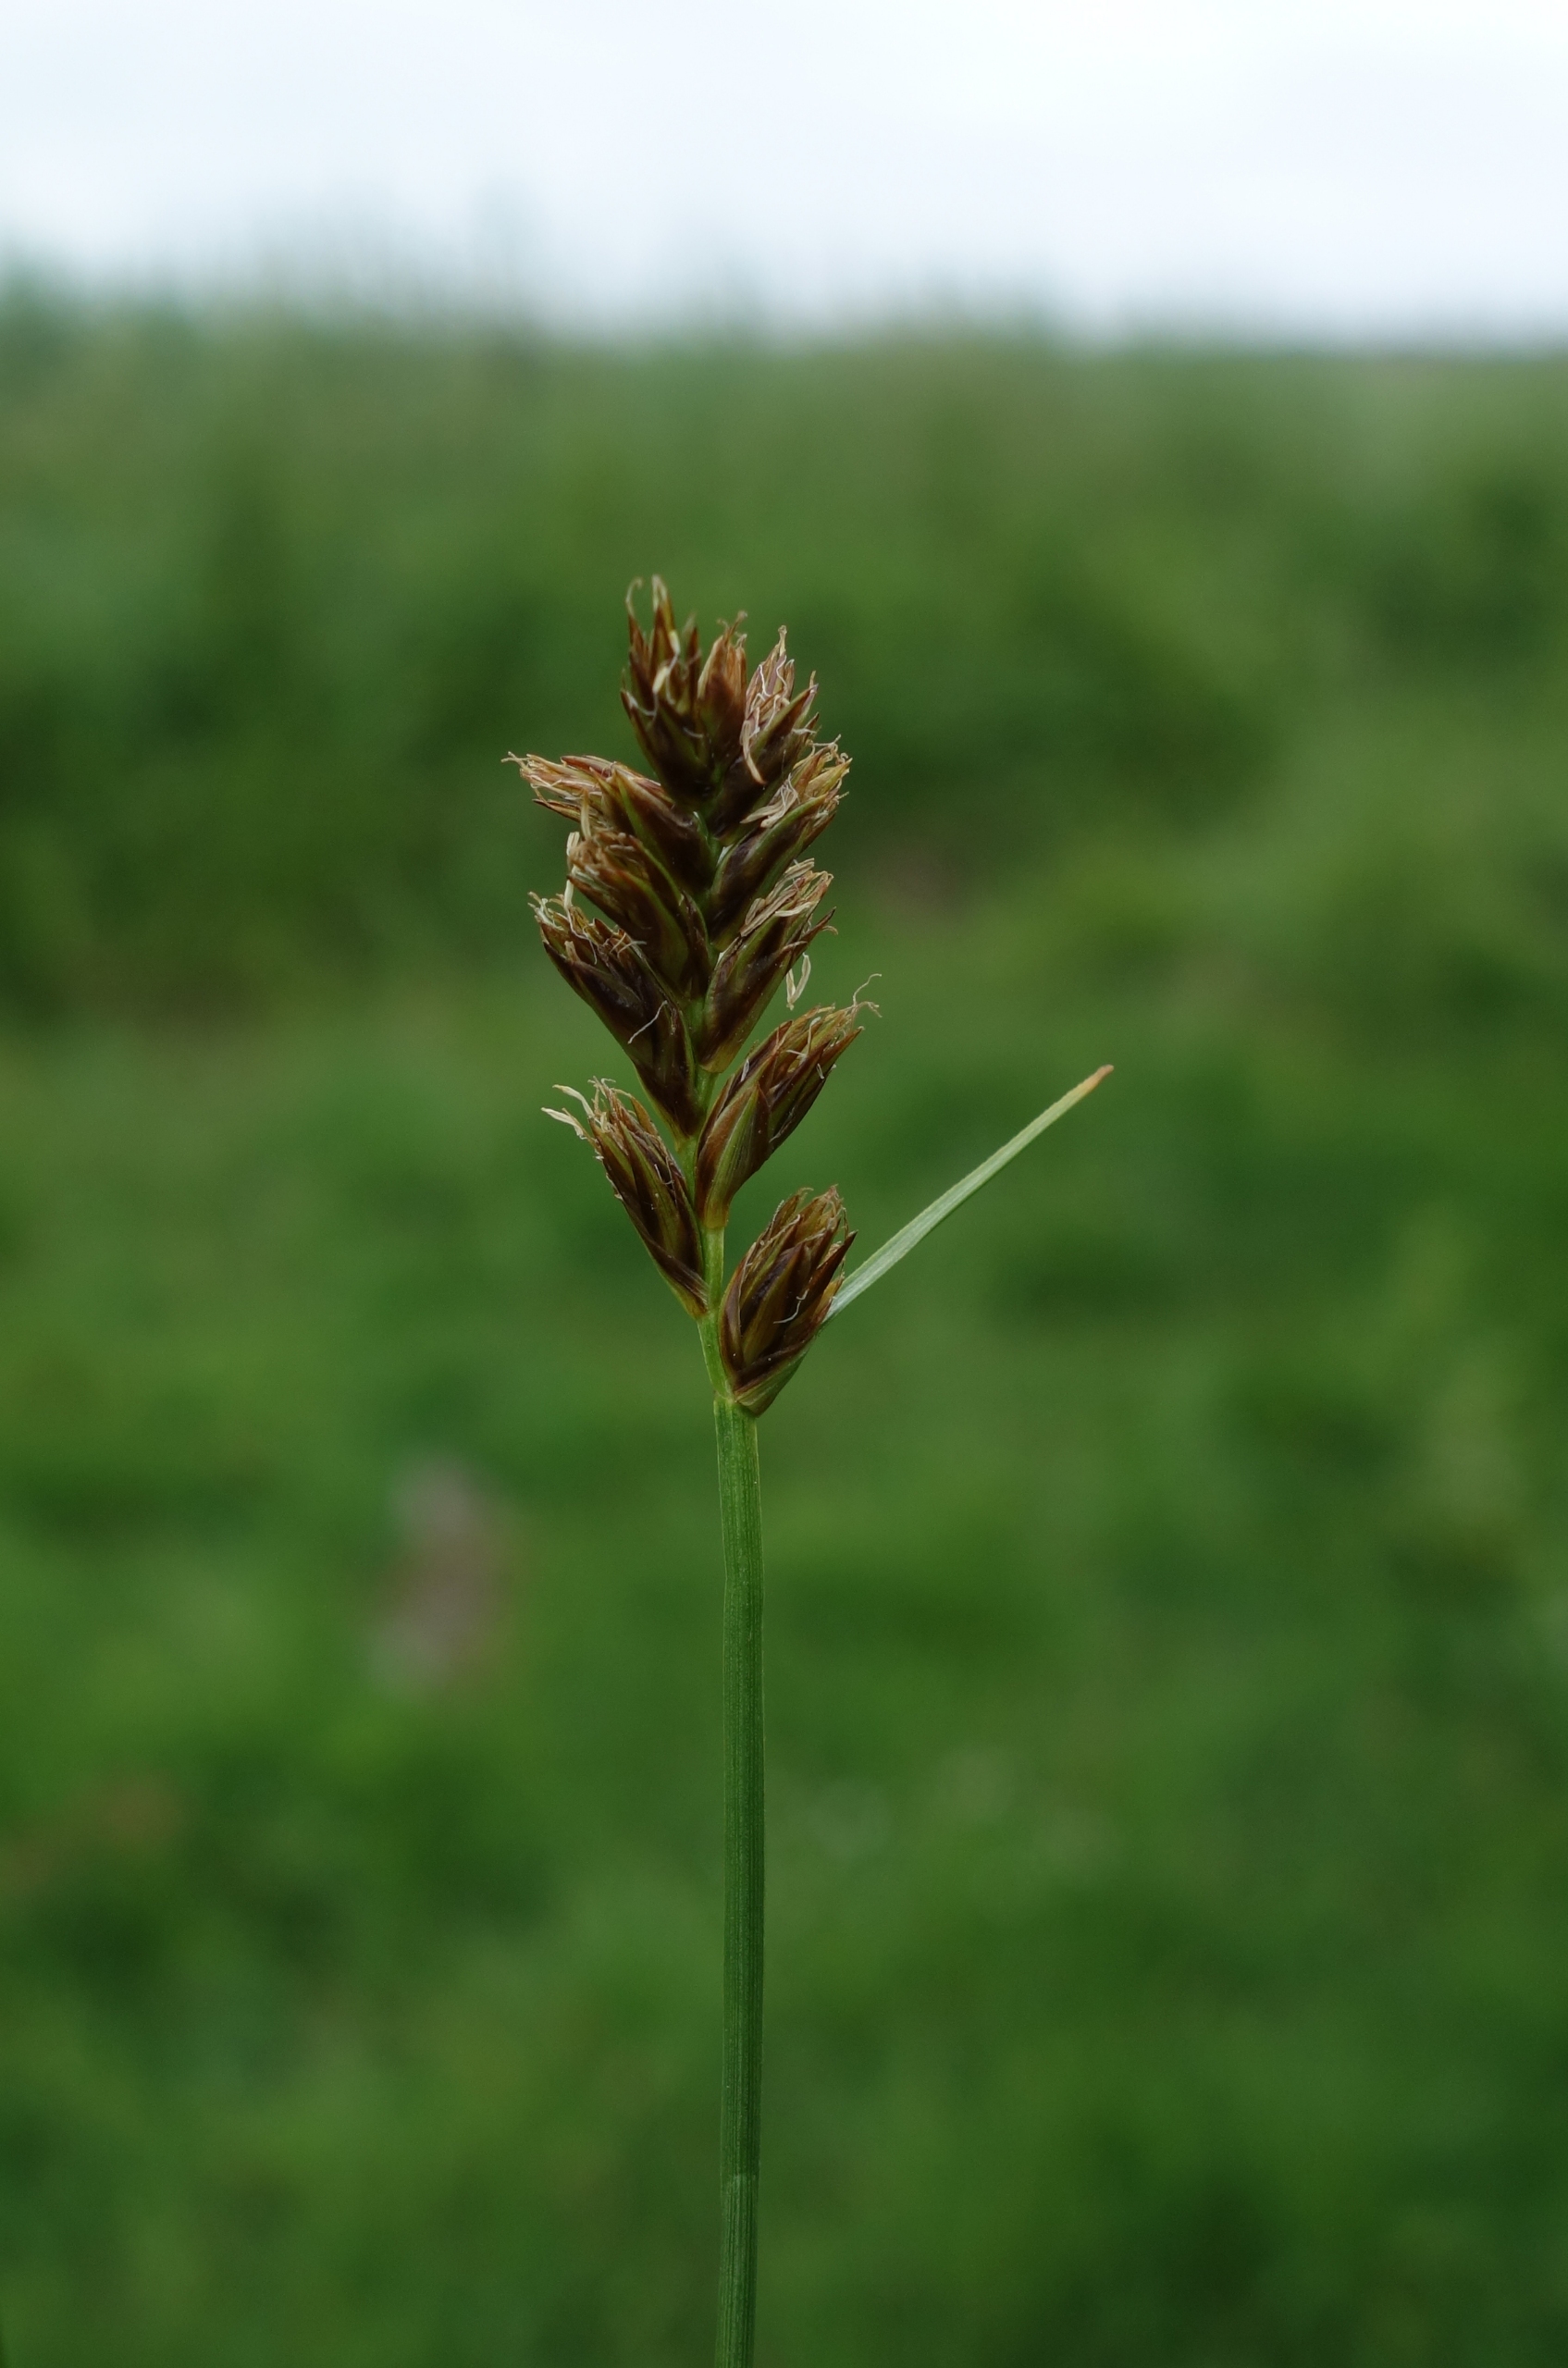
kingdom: Plantae
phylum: Tracheophyta
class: Liliopsida
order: Poales
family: Cyperaceae
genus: Blysmus
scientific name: Blysmus compressus
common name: Fladtrykt kogleaks
